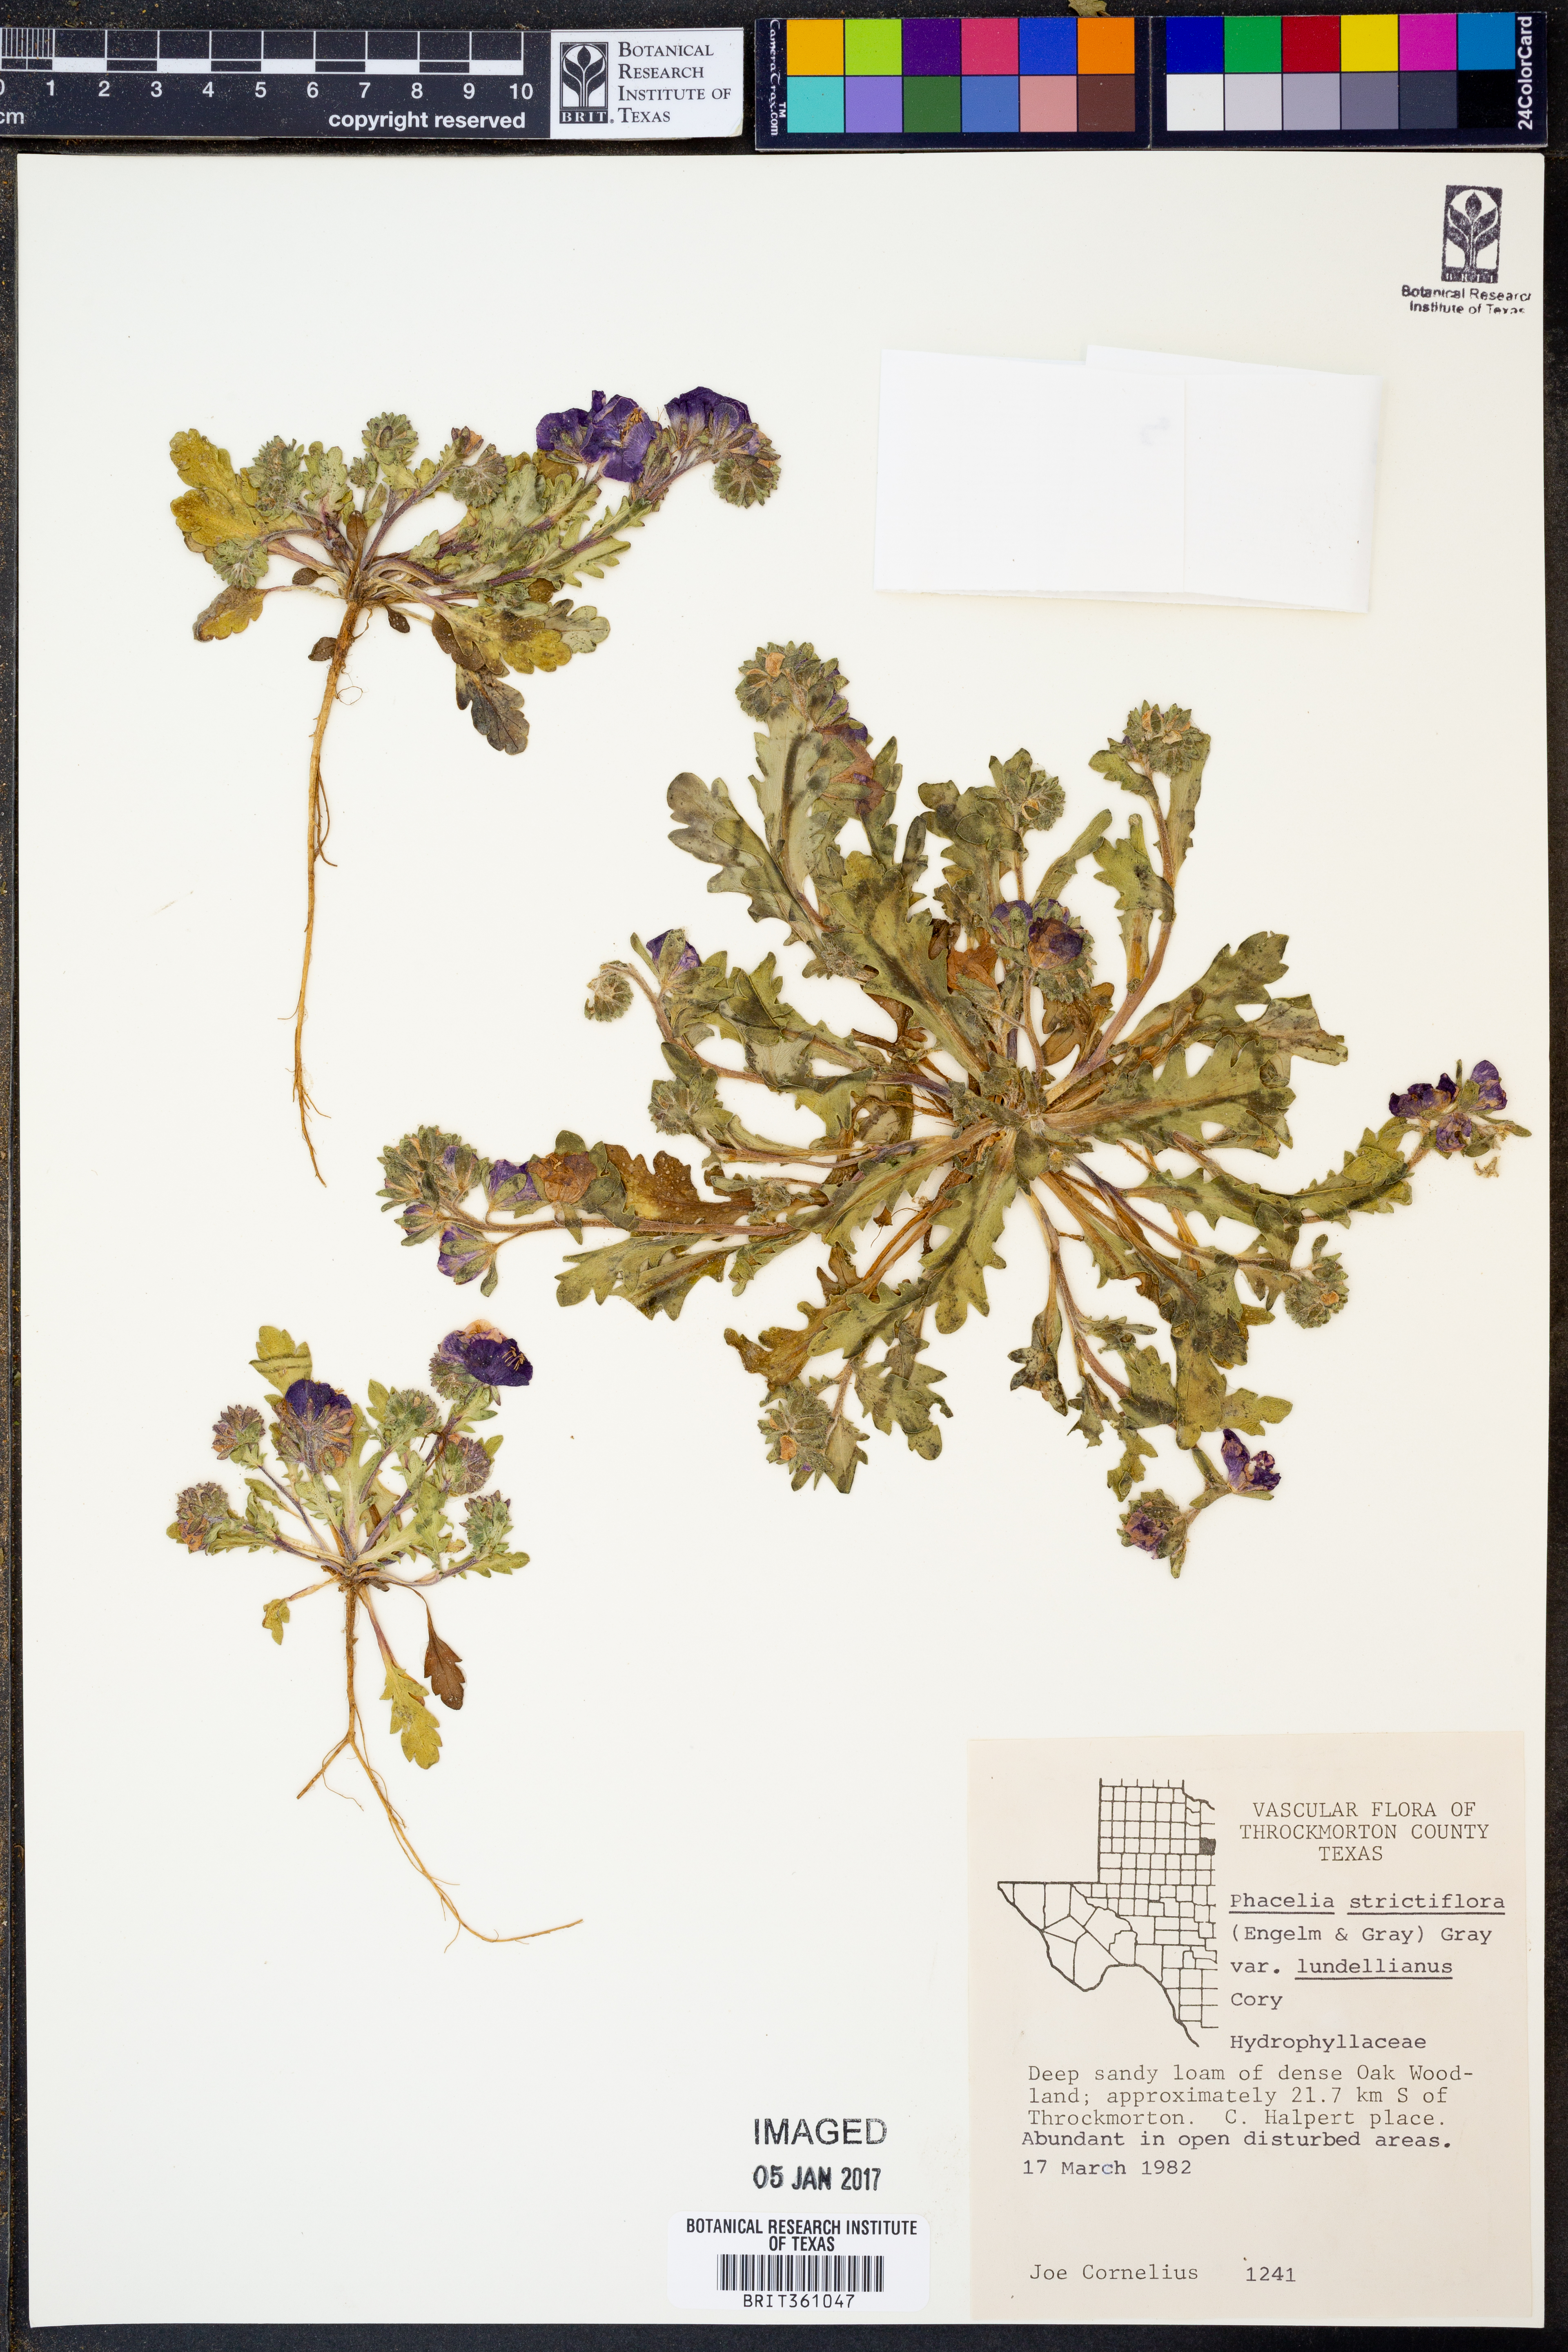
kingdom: Plantae
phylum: Tracheophyta
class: Magnoliopsida
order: Boraginales
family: Hydrophyllaceae
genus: Phacelia
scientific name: Phacelia strictiflora
